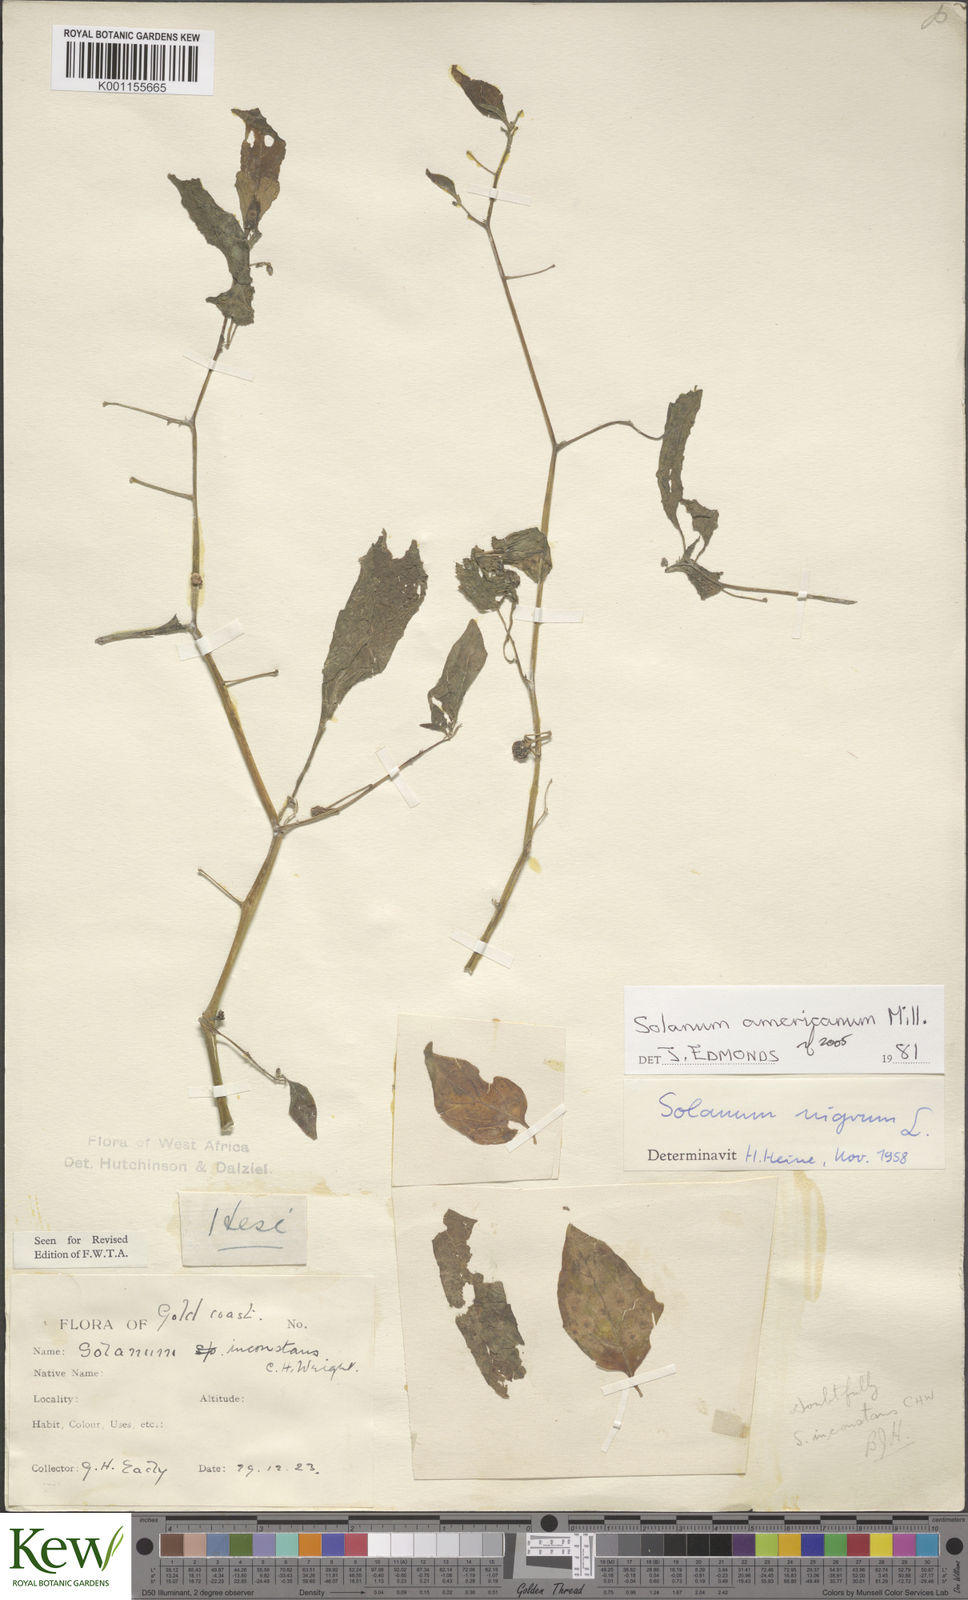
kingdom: Plantae
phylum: Tracheophyta
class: Magnoliopsida
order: Solanales
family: Solanaceae
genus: Solanum
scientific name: Solanum americanum
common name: American black nightshade
